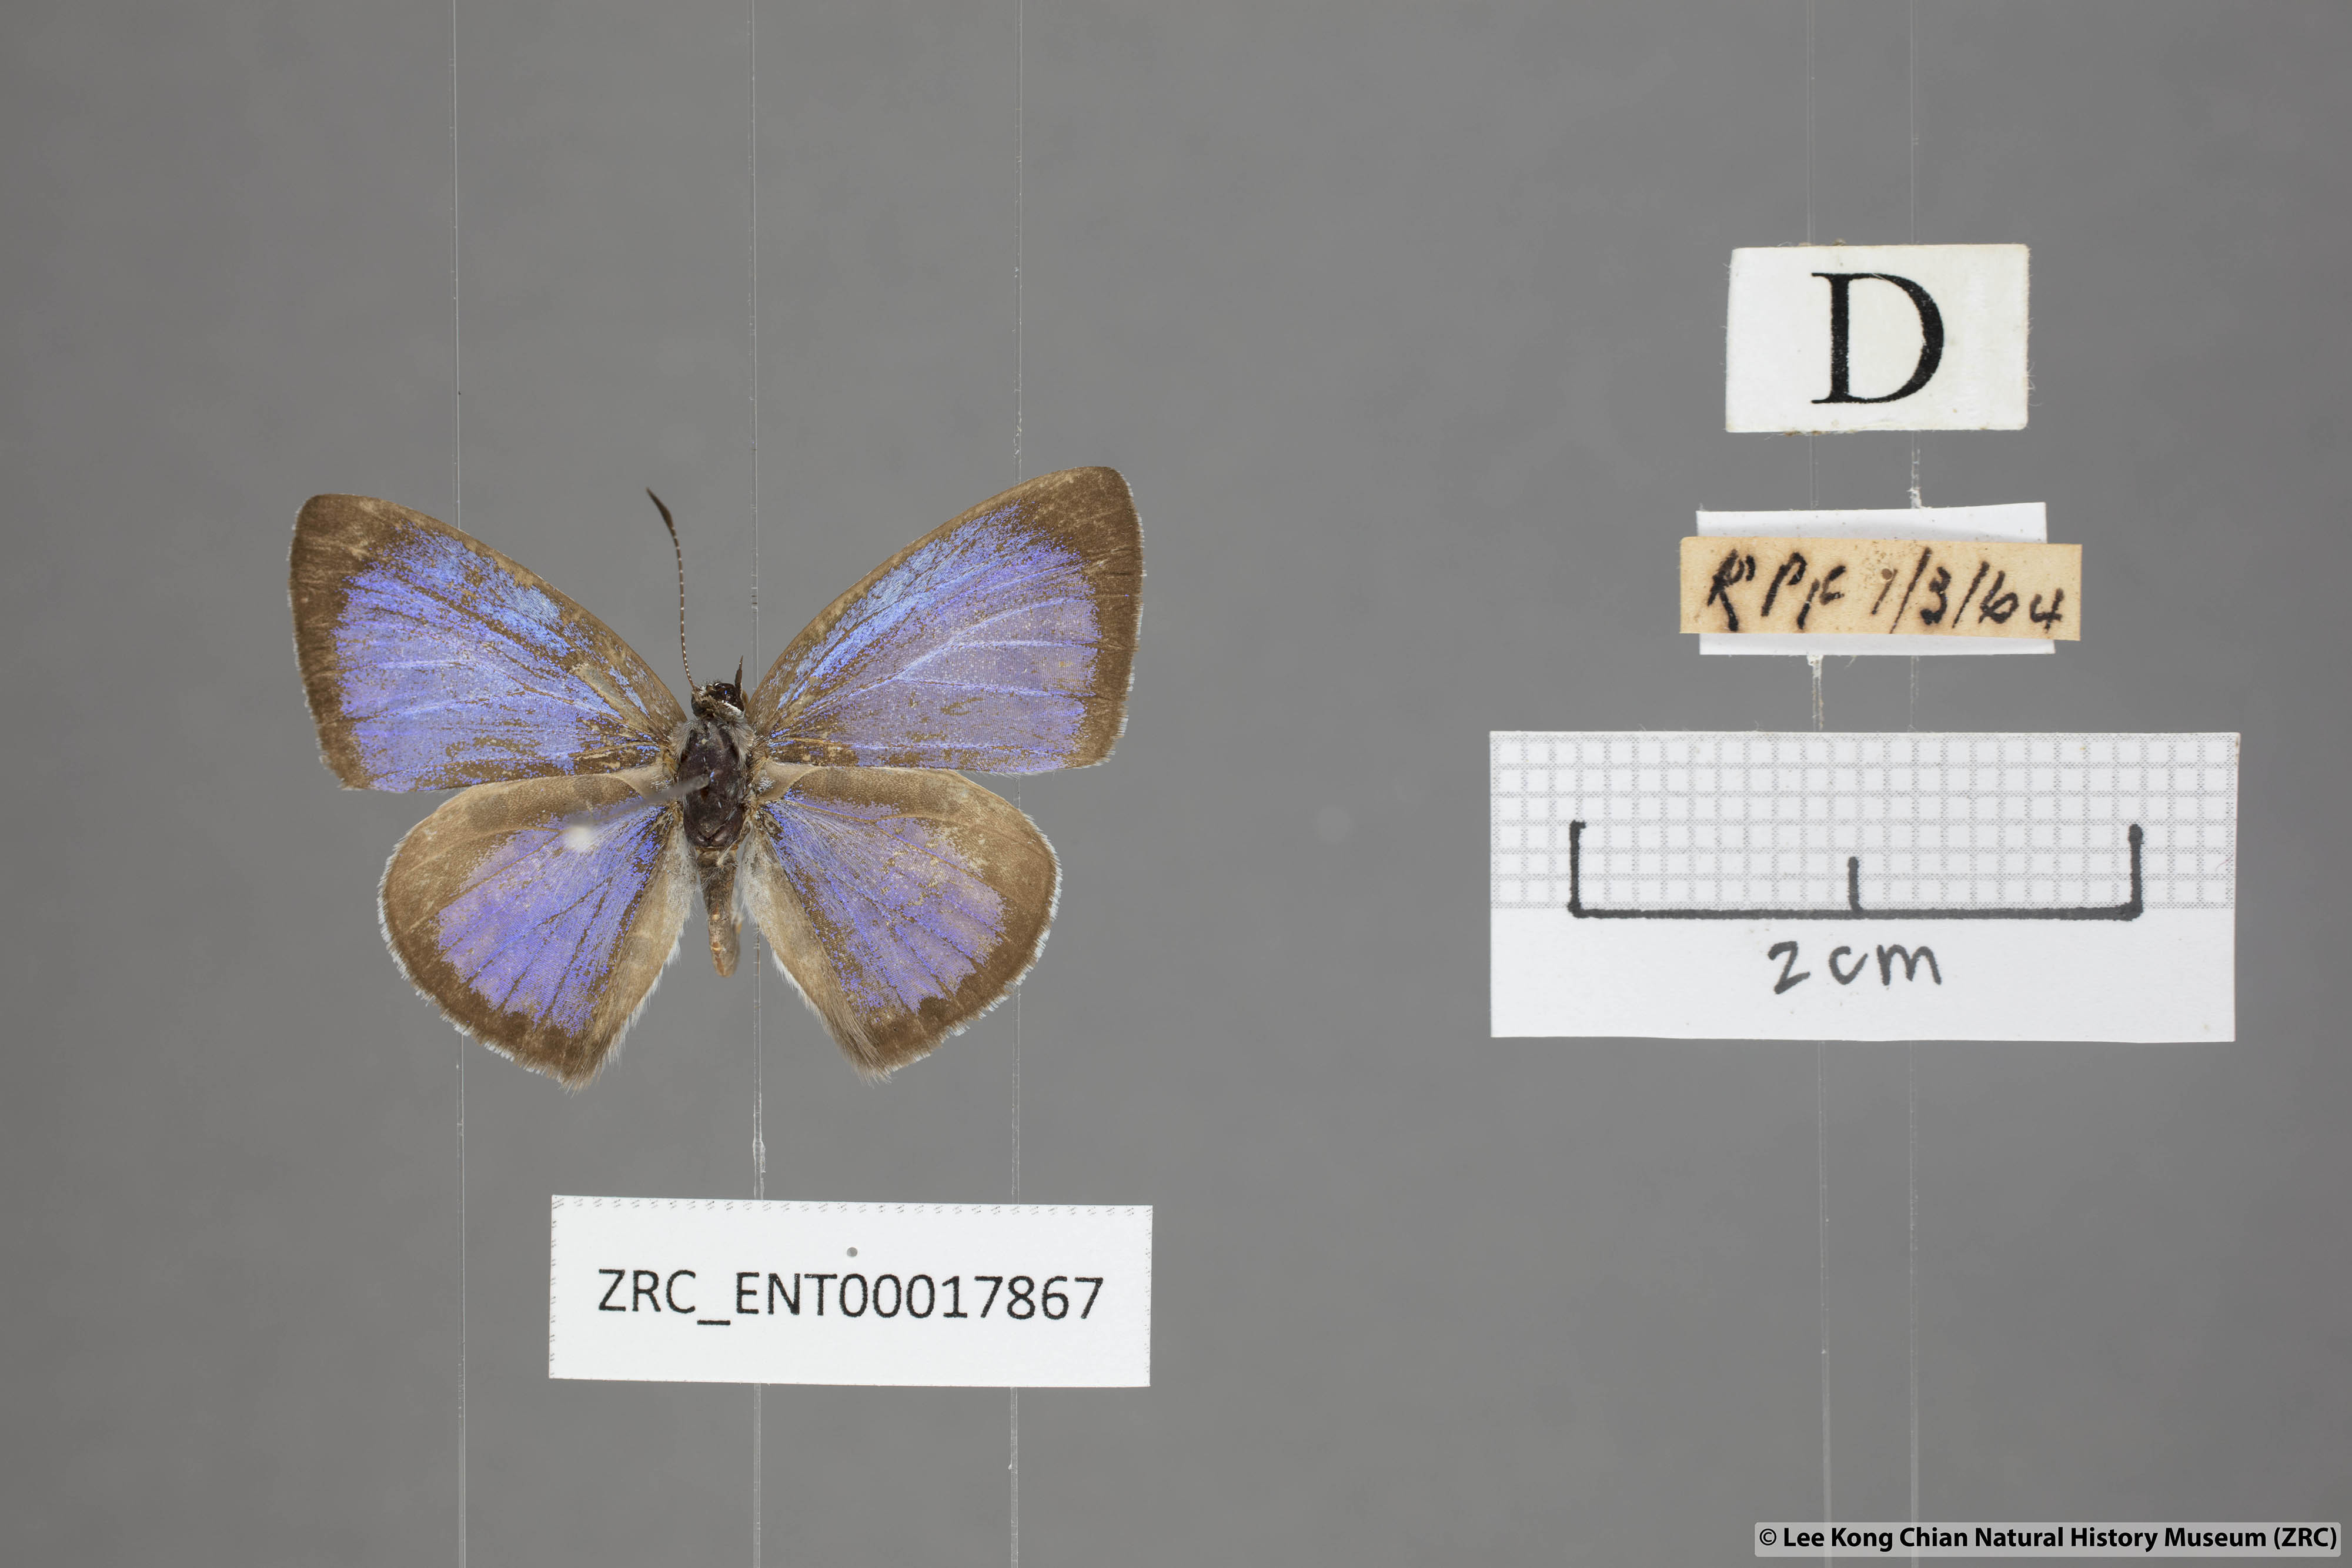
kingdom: Animalia
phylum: Arthropoda
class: Insecta
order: Lepidoptera
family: Lycaenidae
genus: Acytolepis
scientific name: Acytolepis puspa
